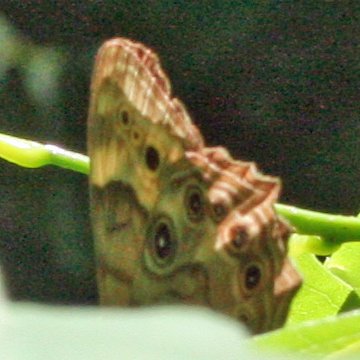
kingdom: Animalia
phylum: Arthropoda
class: Insecta
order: Lepidoptera
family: Nymphalidae
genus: Lethe
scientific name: Lethe anthedon
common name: Northern Pearly-Eye
